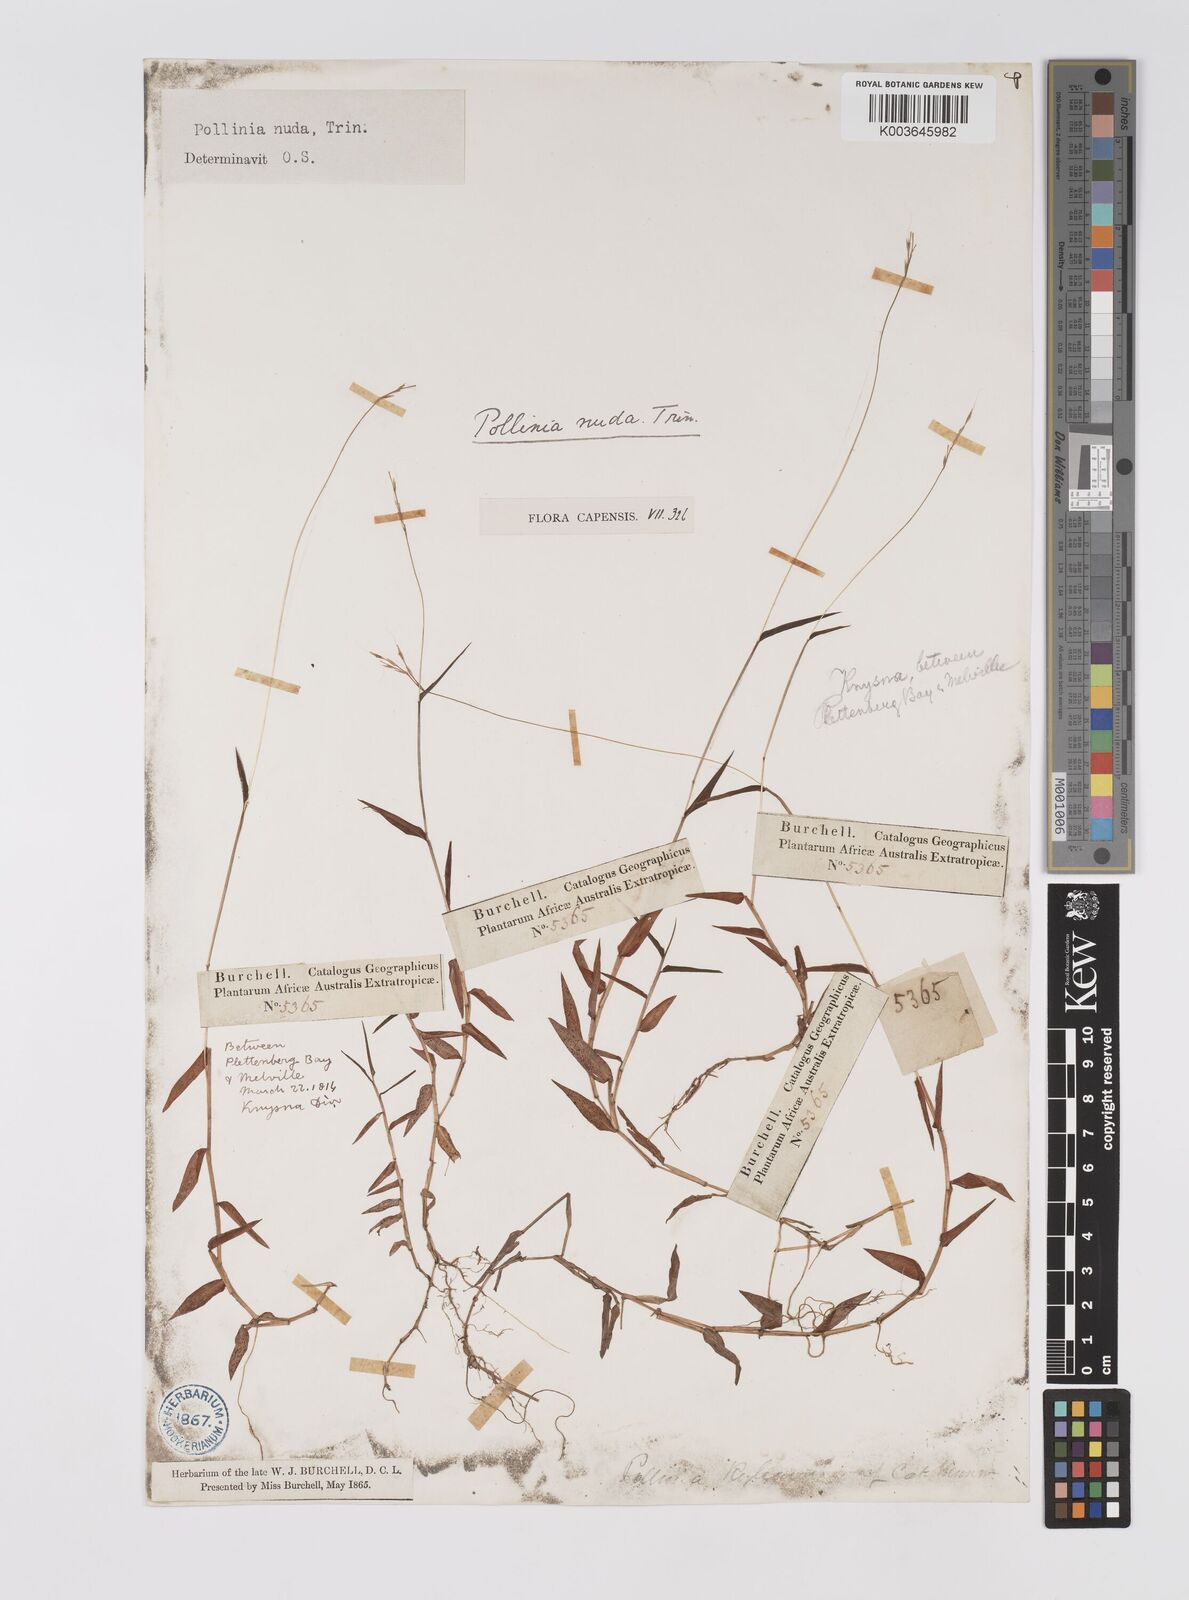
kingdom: Plantae
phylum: Tracheophyta
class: Liliopsida
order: Poales
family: Poaceae
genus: Microstegium
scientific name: Microstegium nudum
